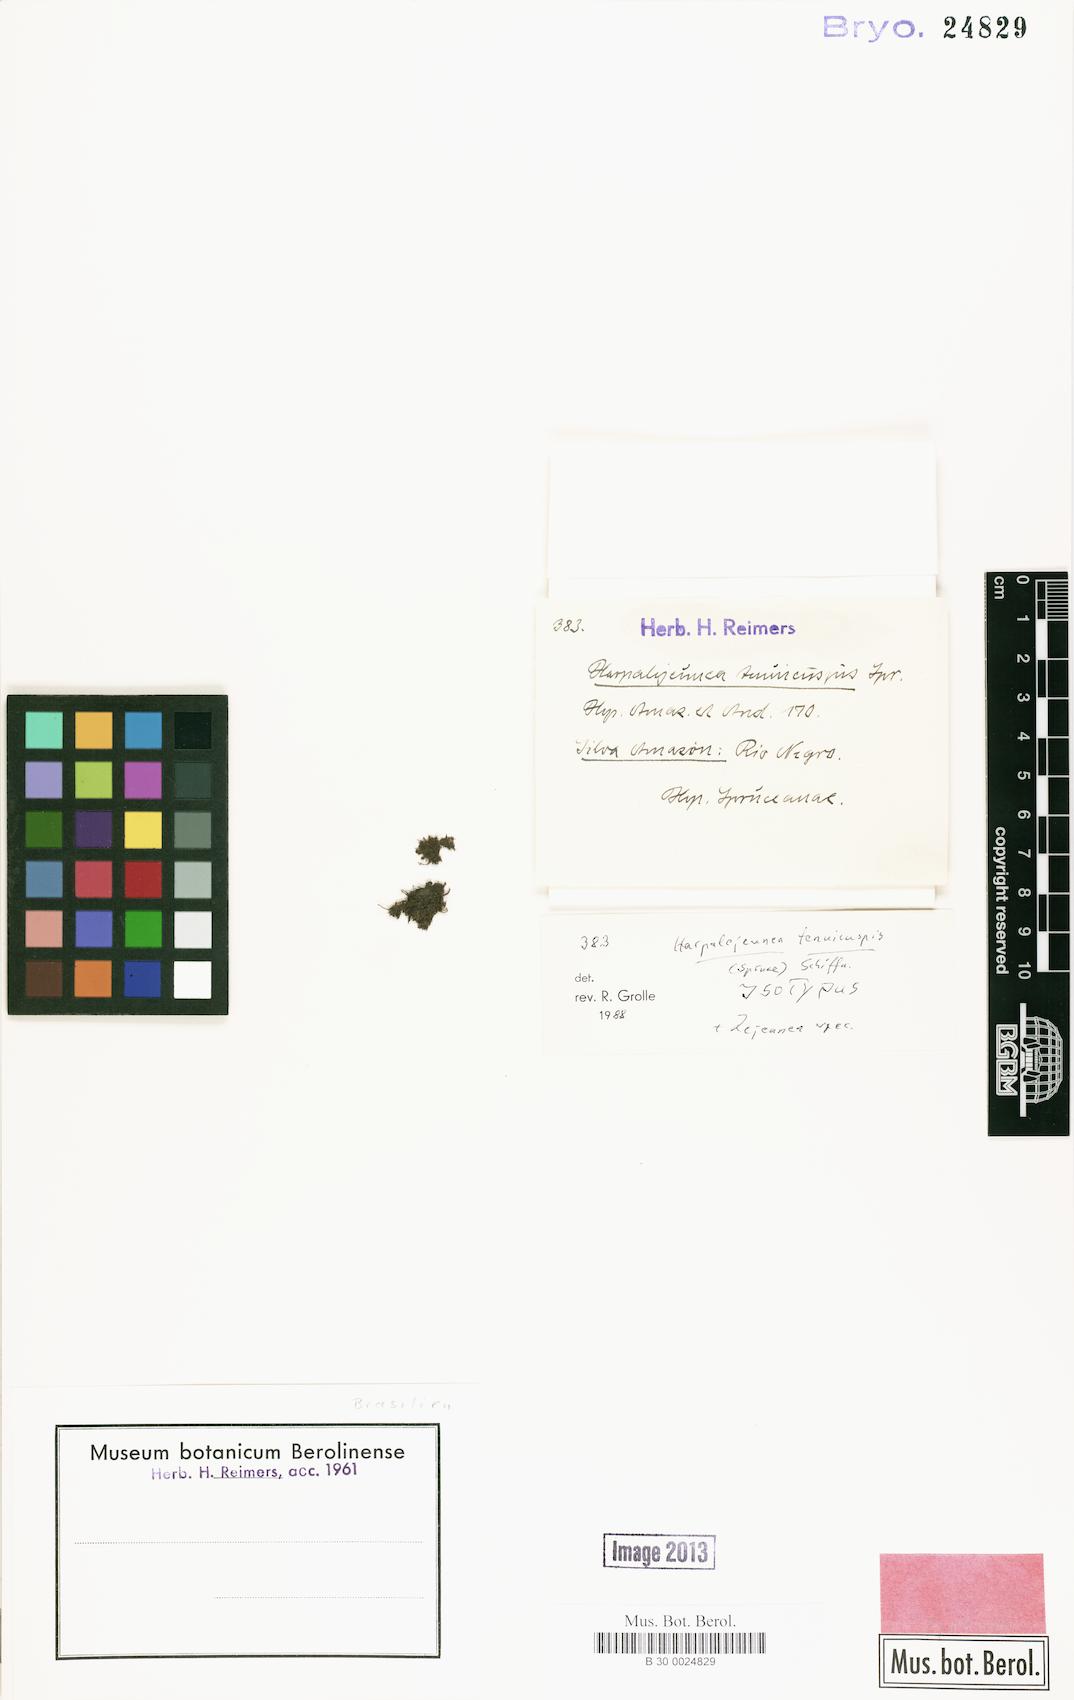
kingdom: Plantae
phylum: Marchantiophyta
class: Jungermanniopsida
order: Porellales
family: Lejeuneaceae
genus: Harpalejeunea
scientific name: Harpalejeunea tenuicuspis
